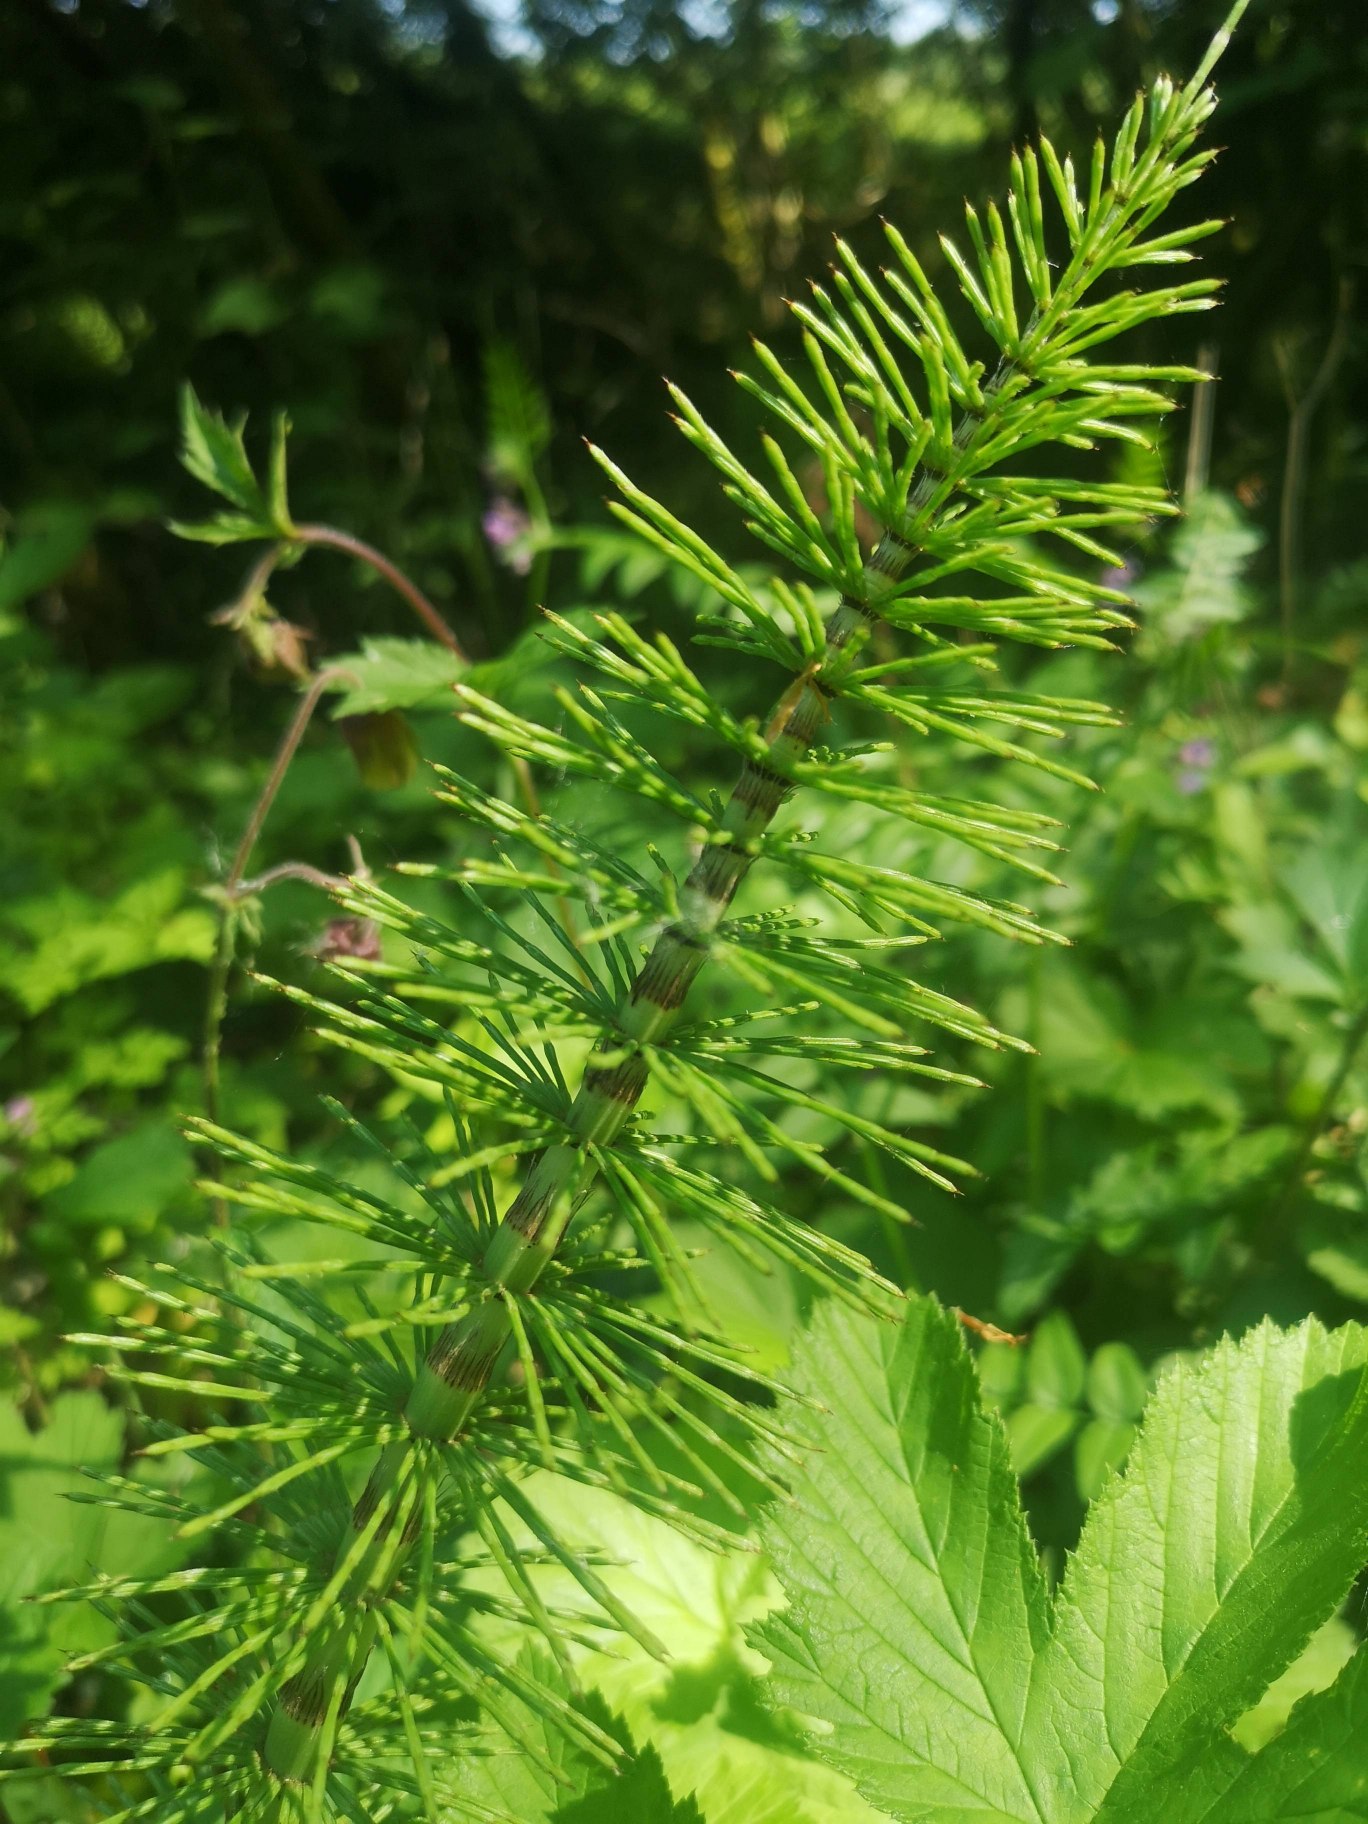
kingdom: Plantae
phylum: Tracheophyta
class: Polypodiopsida
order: Equisetales
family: Equisetaceae
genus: Equisetum
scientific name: Equisetum telmateia
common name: Elfenbens-padderok
